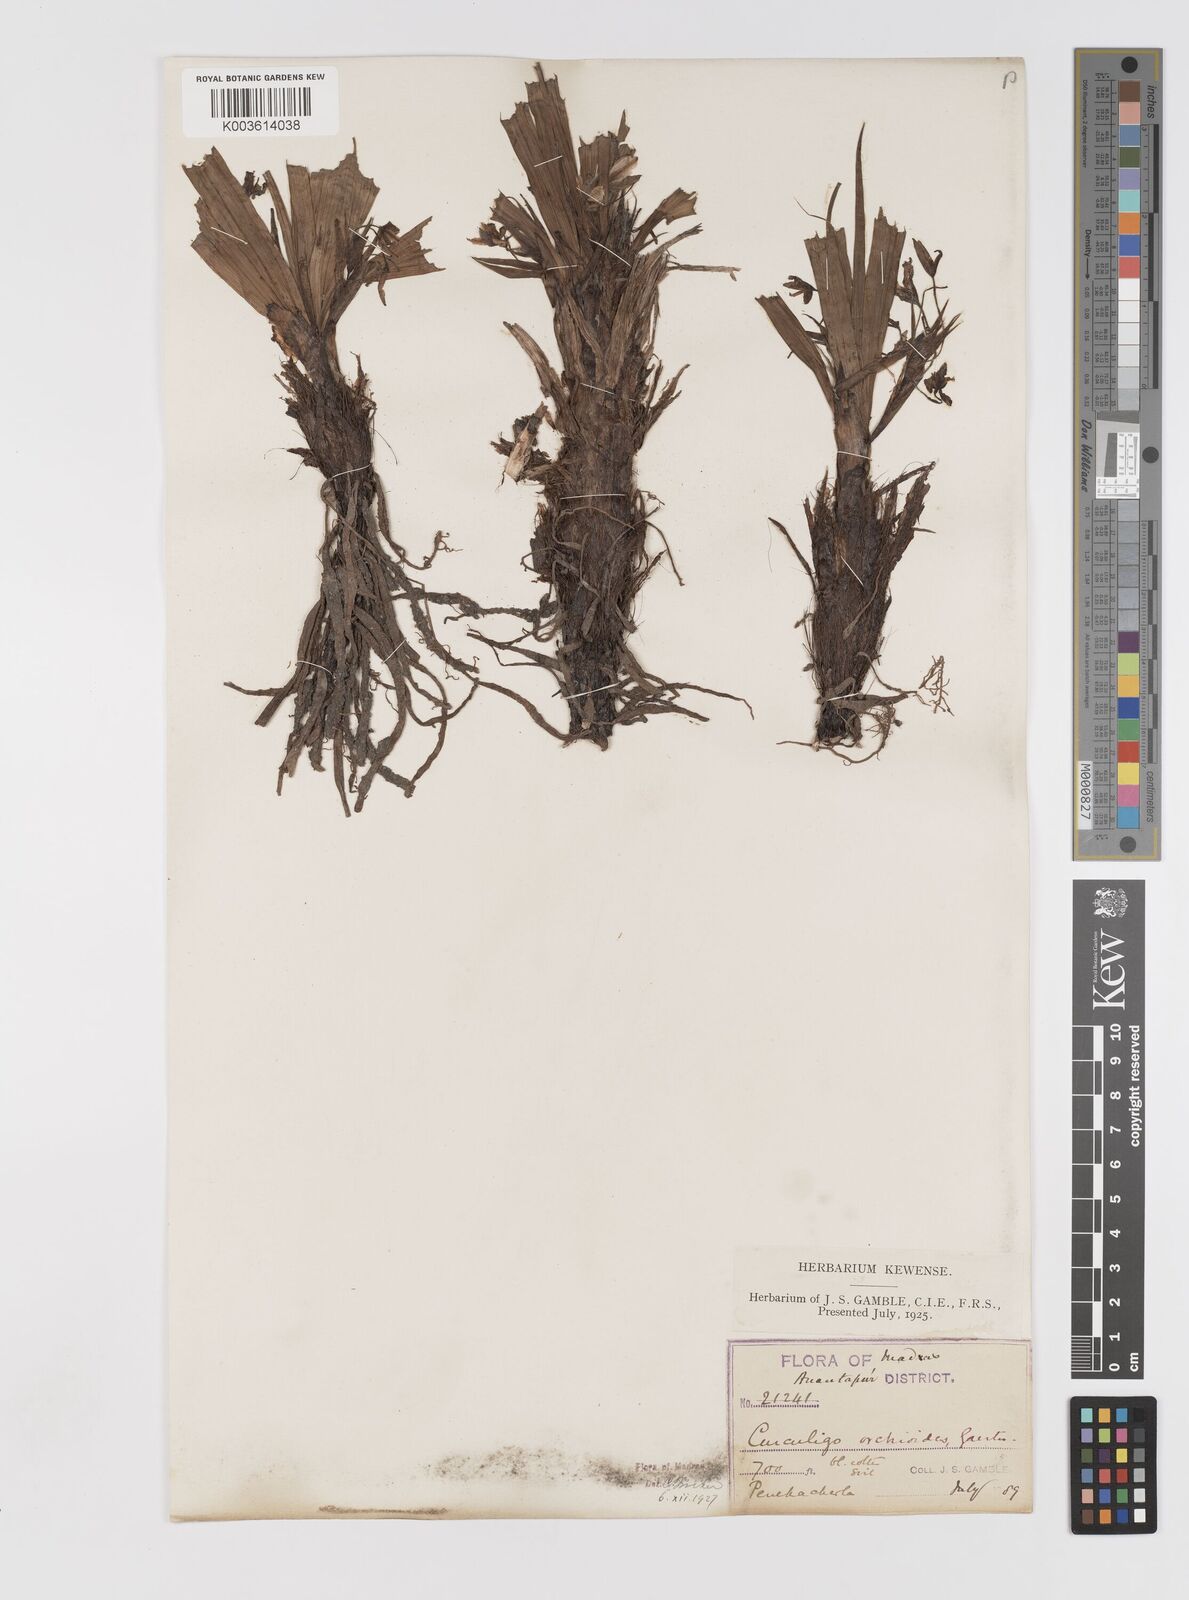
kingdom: Plantae
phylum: Tracheophyta
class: Liliopsida
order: Asparagales
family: Hypoxidaceae
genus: Curculigo
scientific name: Curculigo orchioides
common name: Golden eye-grass
